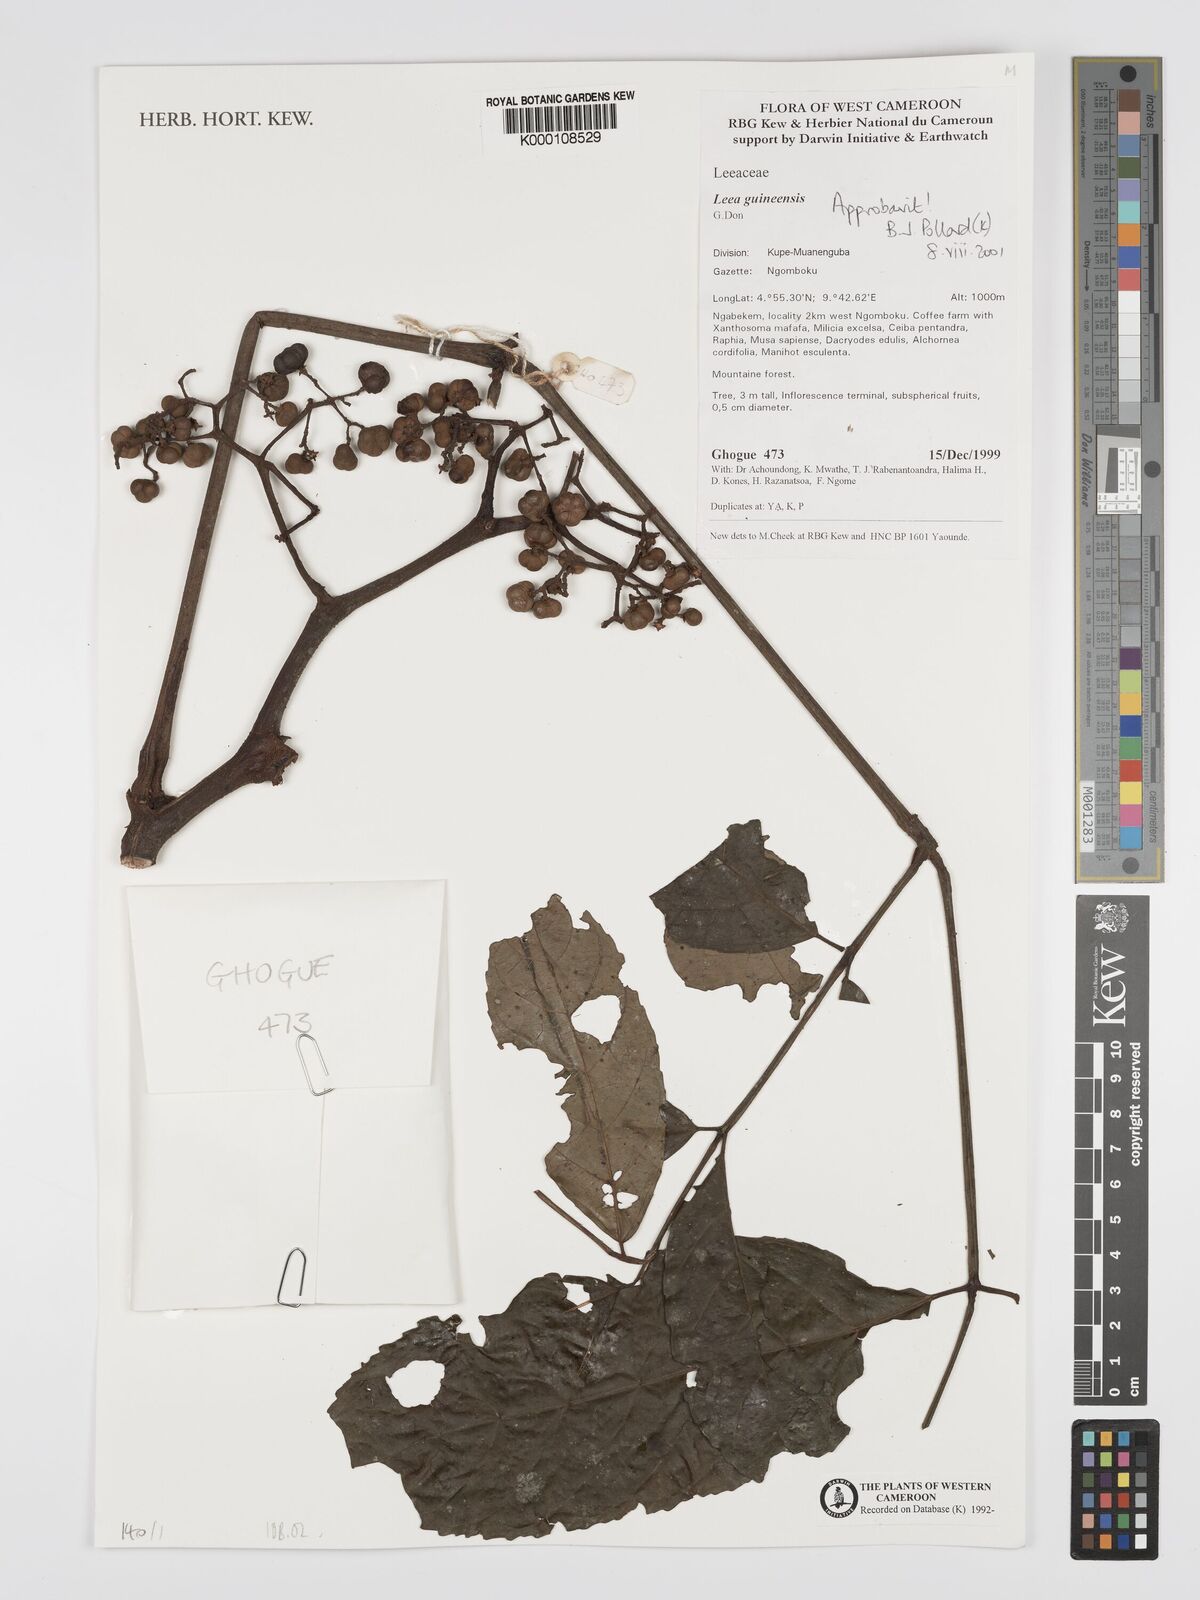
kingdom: Plantae
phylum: Tracheophyta
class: Magnoliopsida
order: Vitales
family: Vitaceae
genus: Leea
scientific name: Leea guineensis
